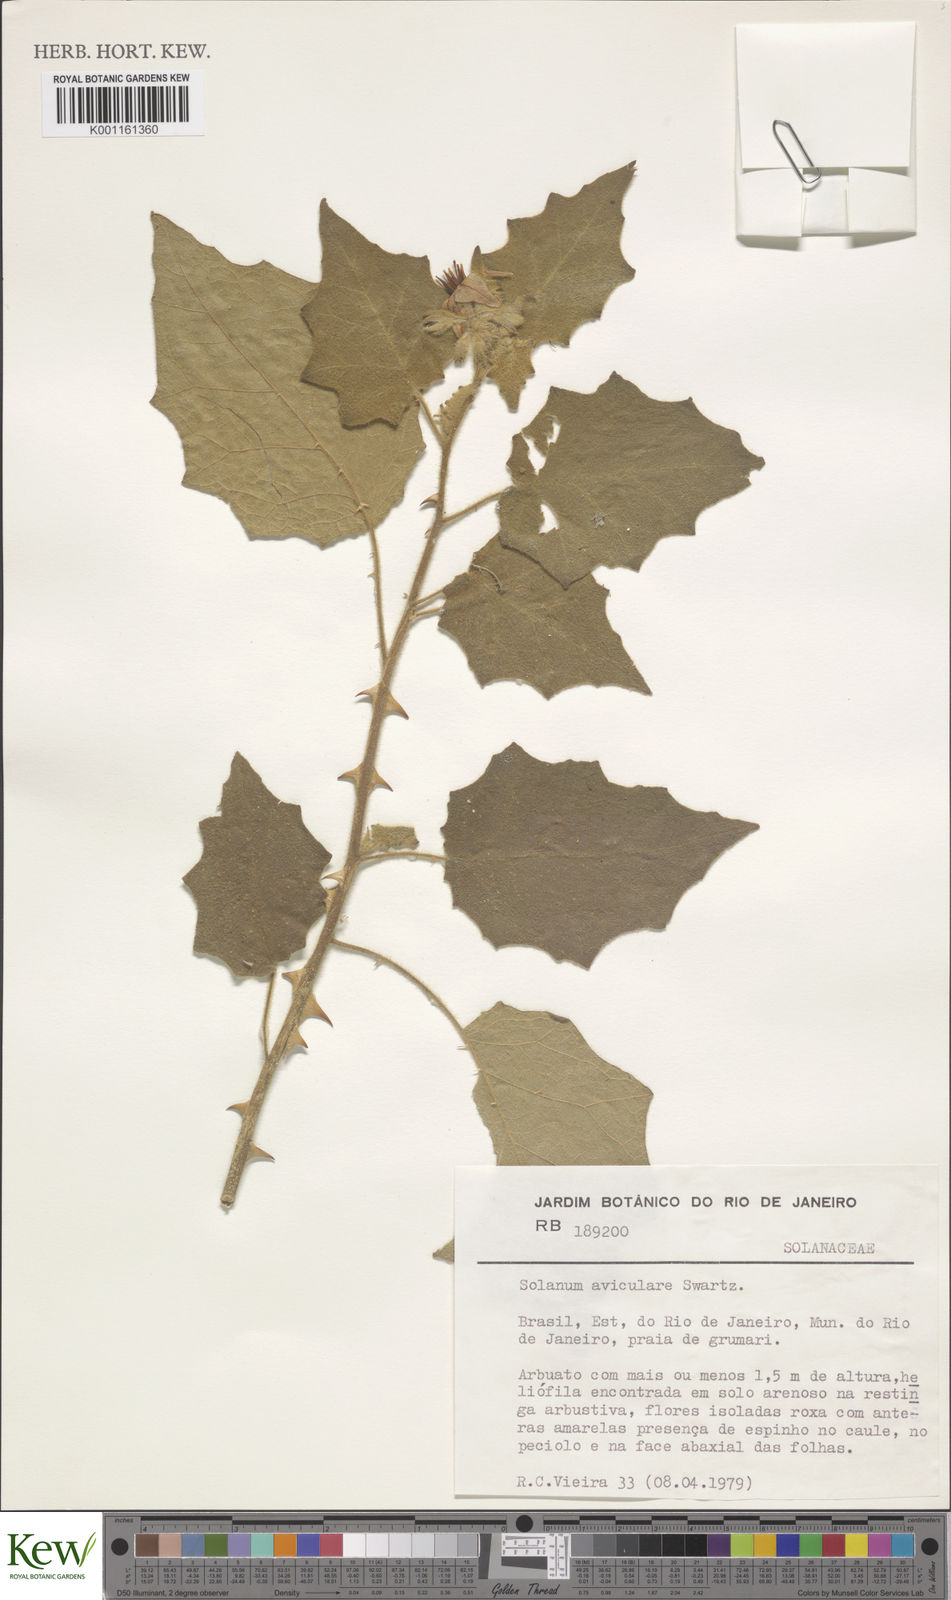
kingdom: Plantae
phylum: Tracheophyta
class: Magnoliopsida
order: Solanales
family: Solanaceae
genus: Solanum
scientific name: Solanum aviculare
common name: New zealand nightshade
